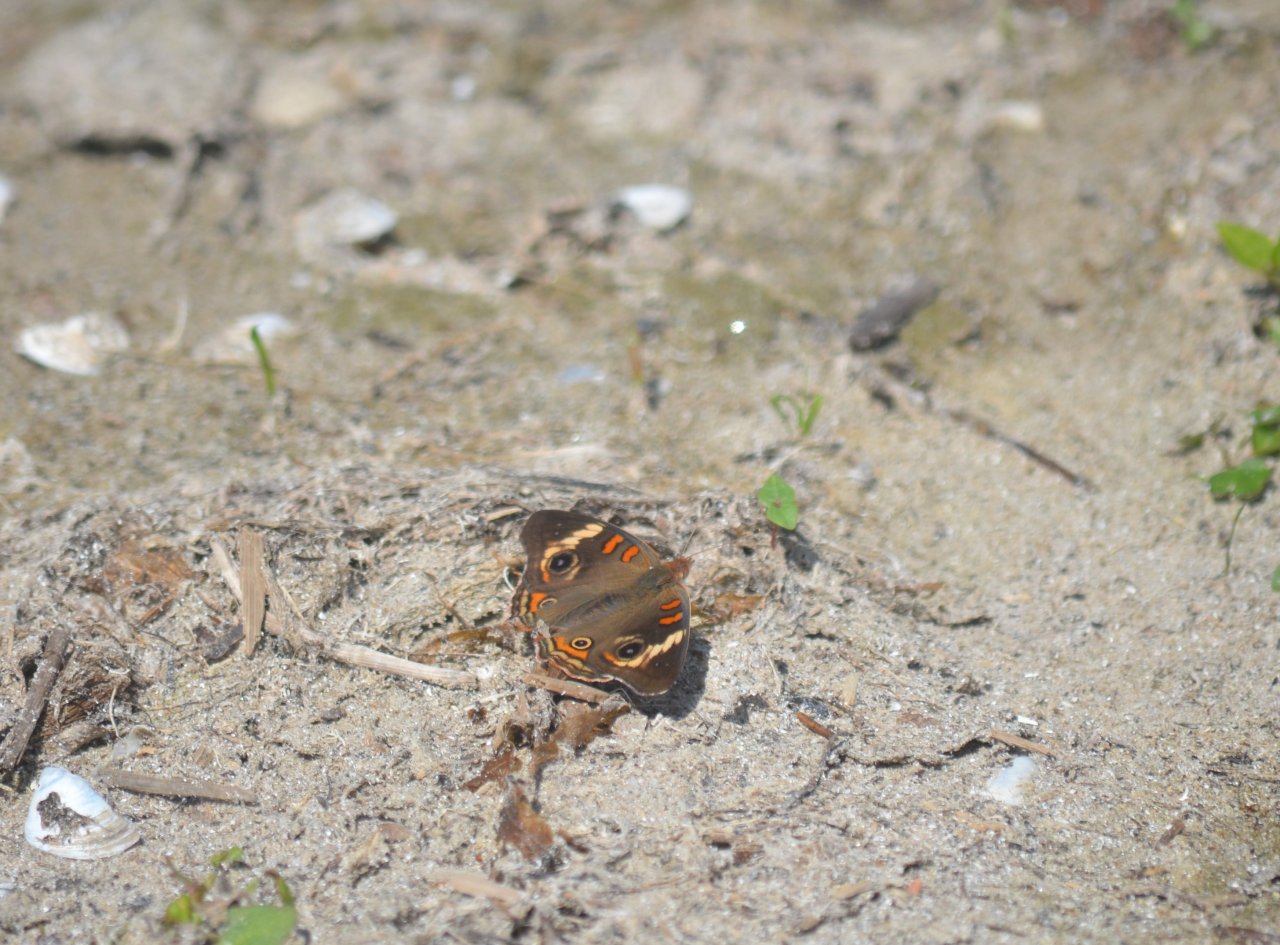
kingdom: Animalia
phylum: Arthropoda
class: Insecta
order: Lepidoptera
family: Nymphalidae
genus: Junonia
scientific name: Junonia coenia
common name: Common Buckeye
